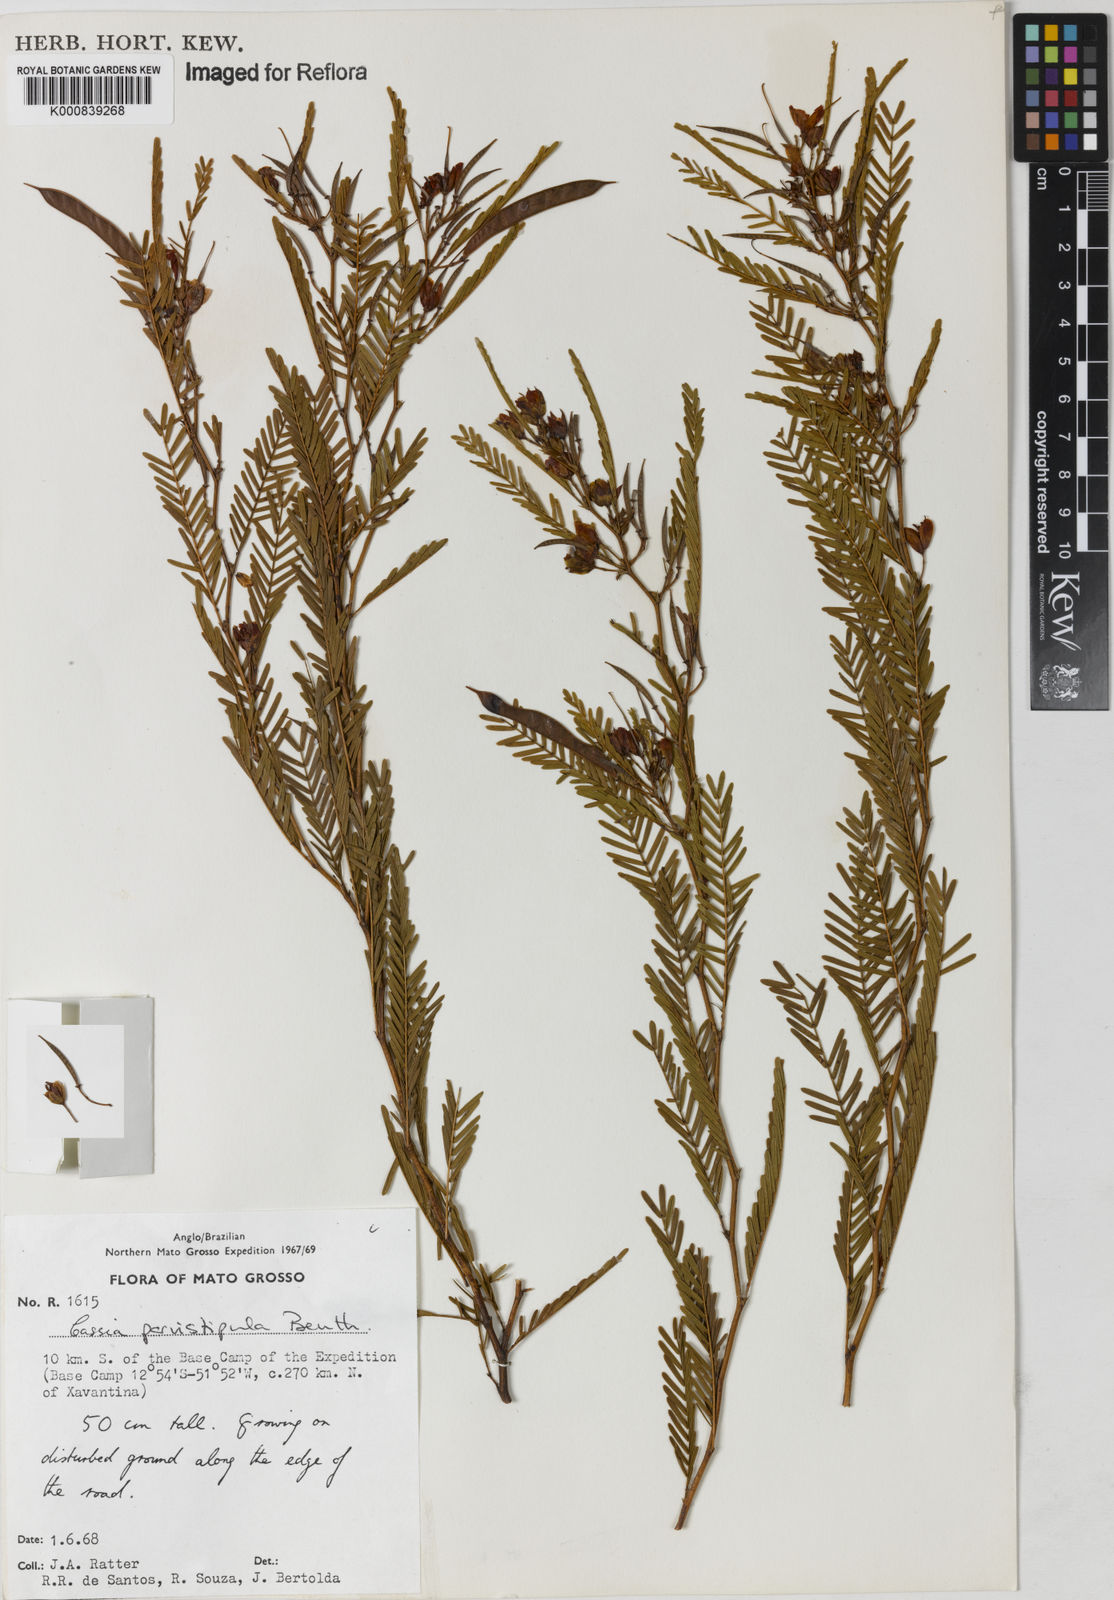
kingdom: Plantae
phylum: Tracheophyta
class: Magnoliopsida
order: Fabales
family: Fabaceae
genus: Chamaecrista
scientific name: Chamaecrista parvistipula
